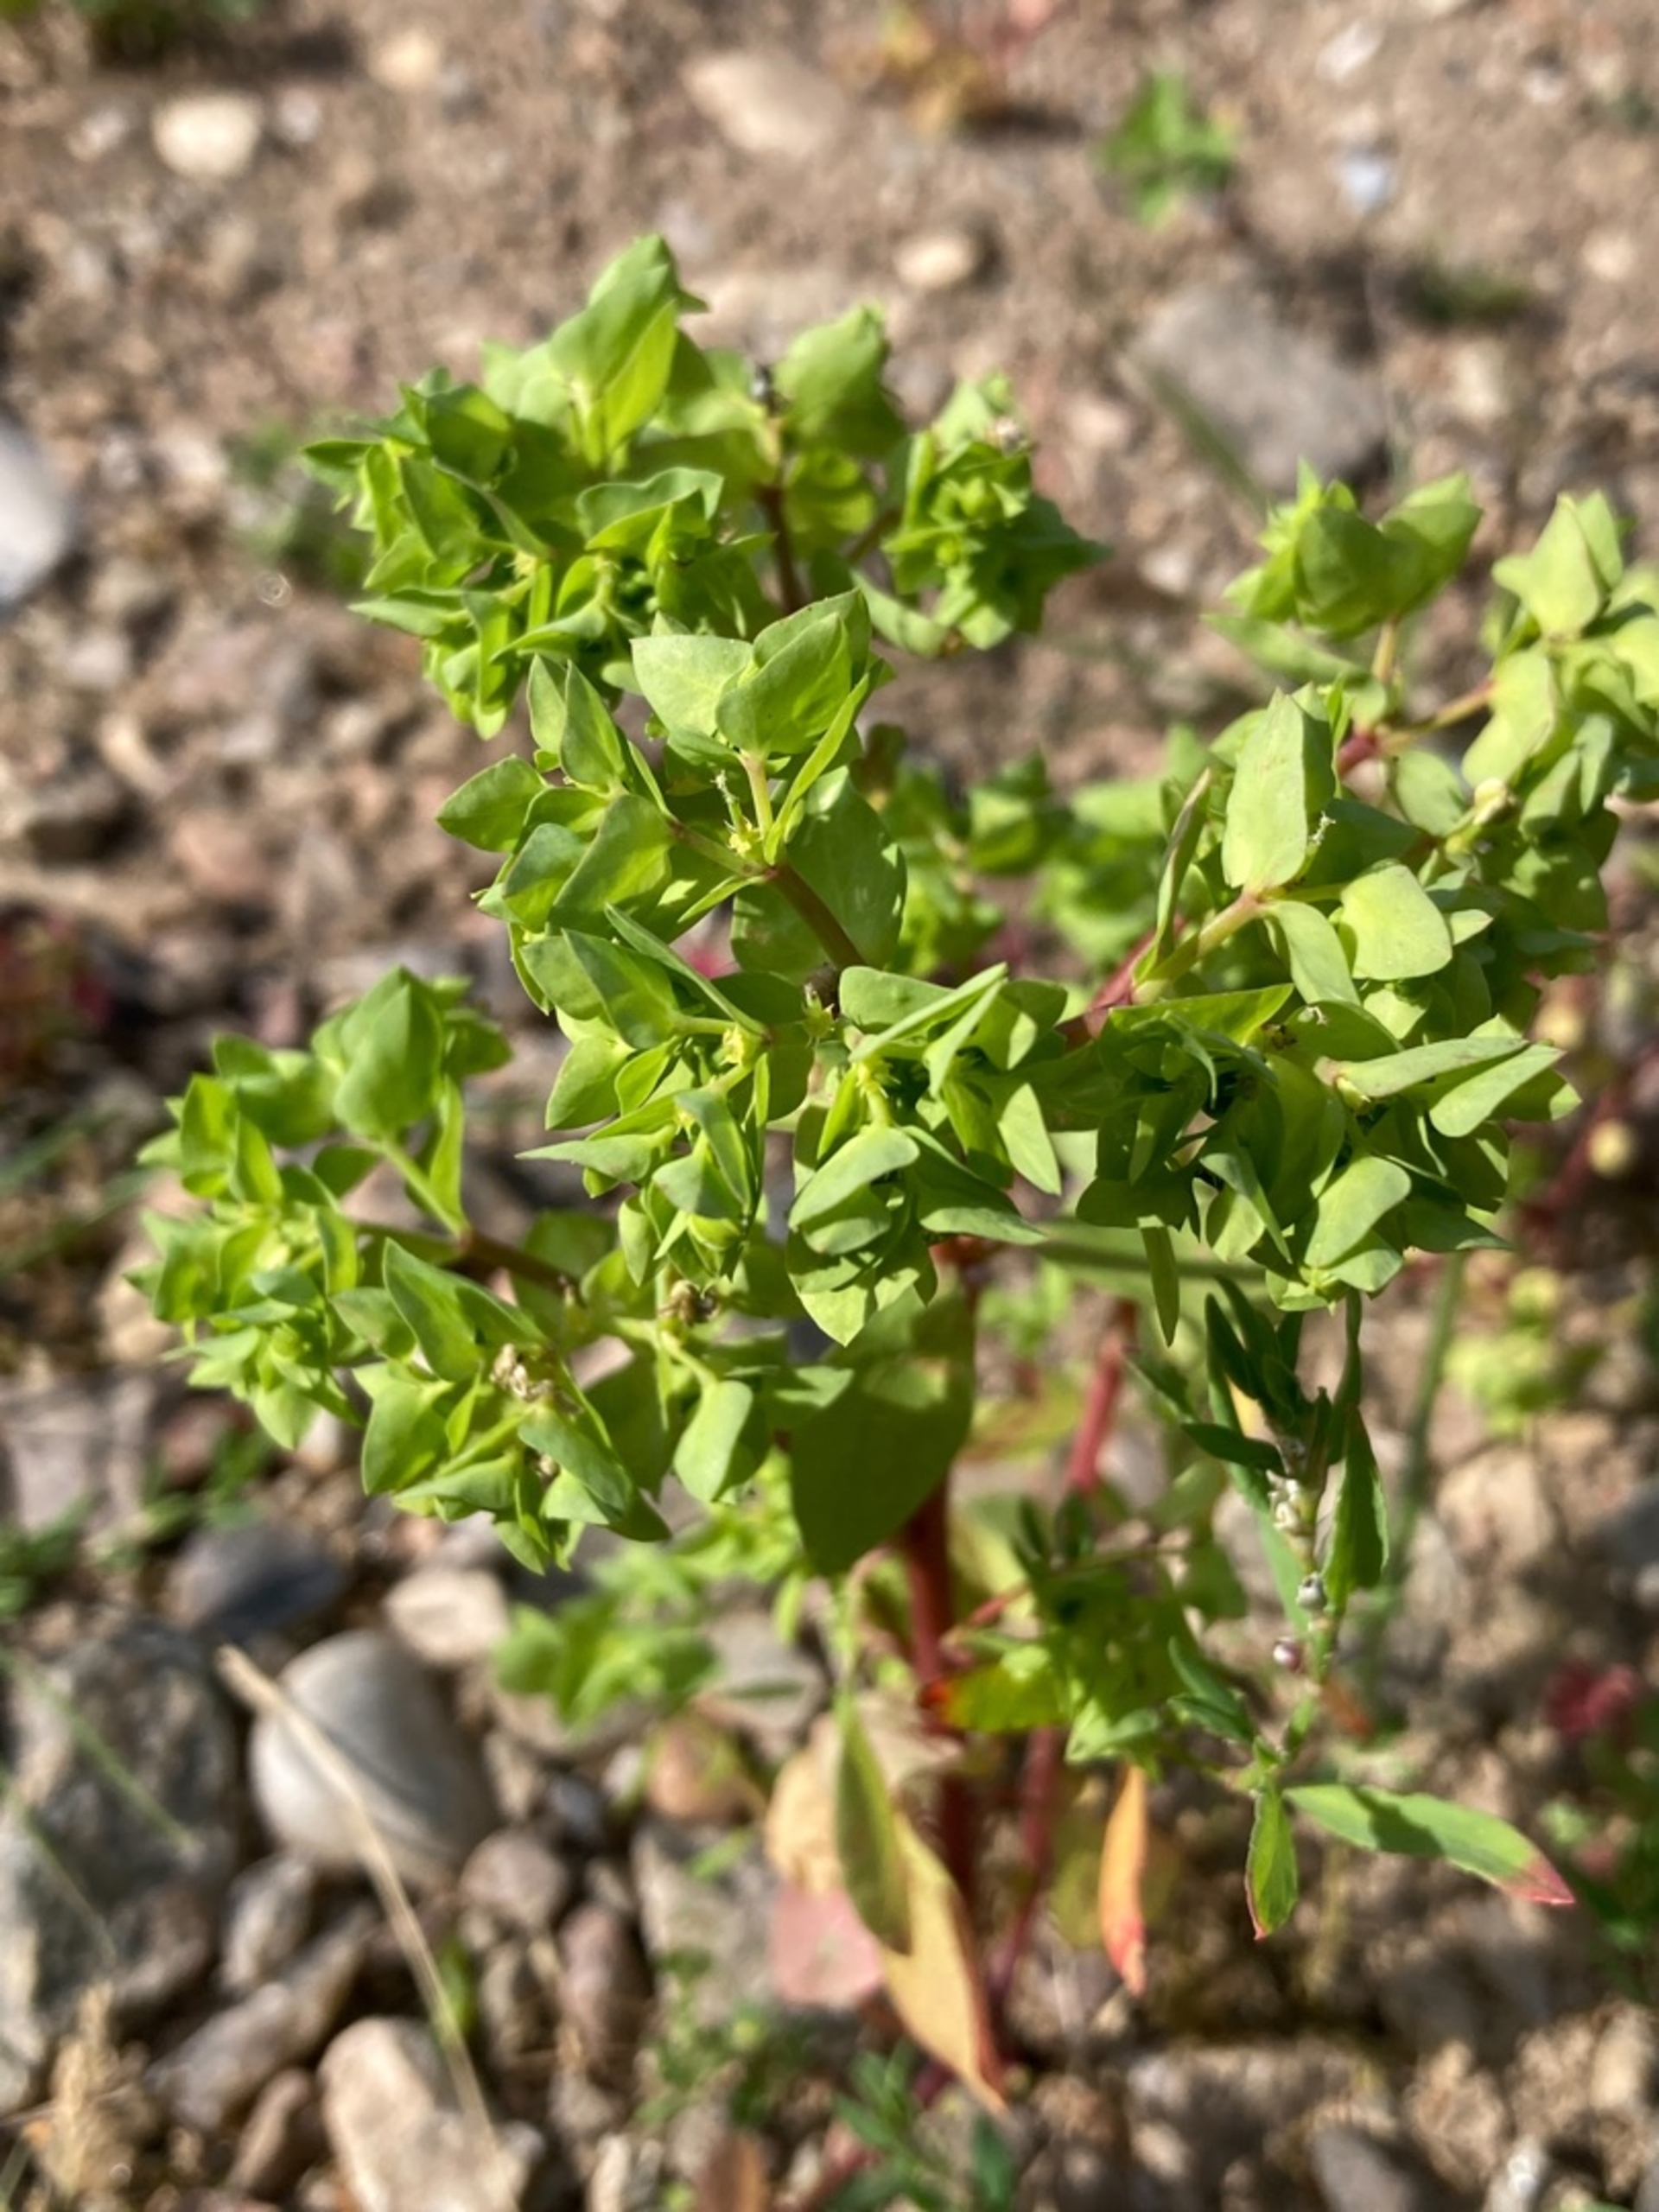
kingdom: Plantae
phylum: Tracheophyta
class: Magnoliopsida
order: Malpighiales
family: Euphorbiaceae
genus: Euphorbia
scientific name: Euphorbia peplus
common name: Gaffel-vortemælk
